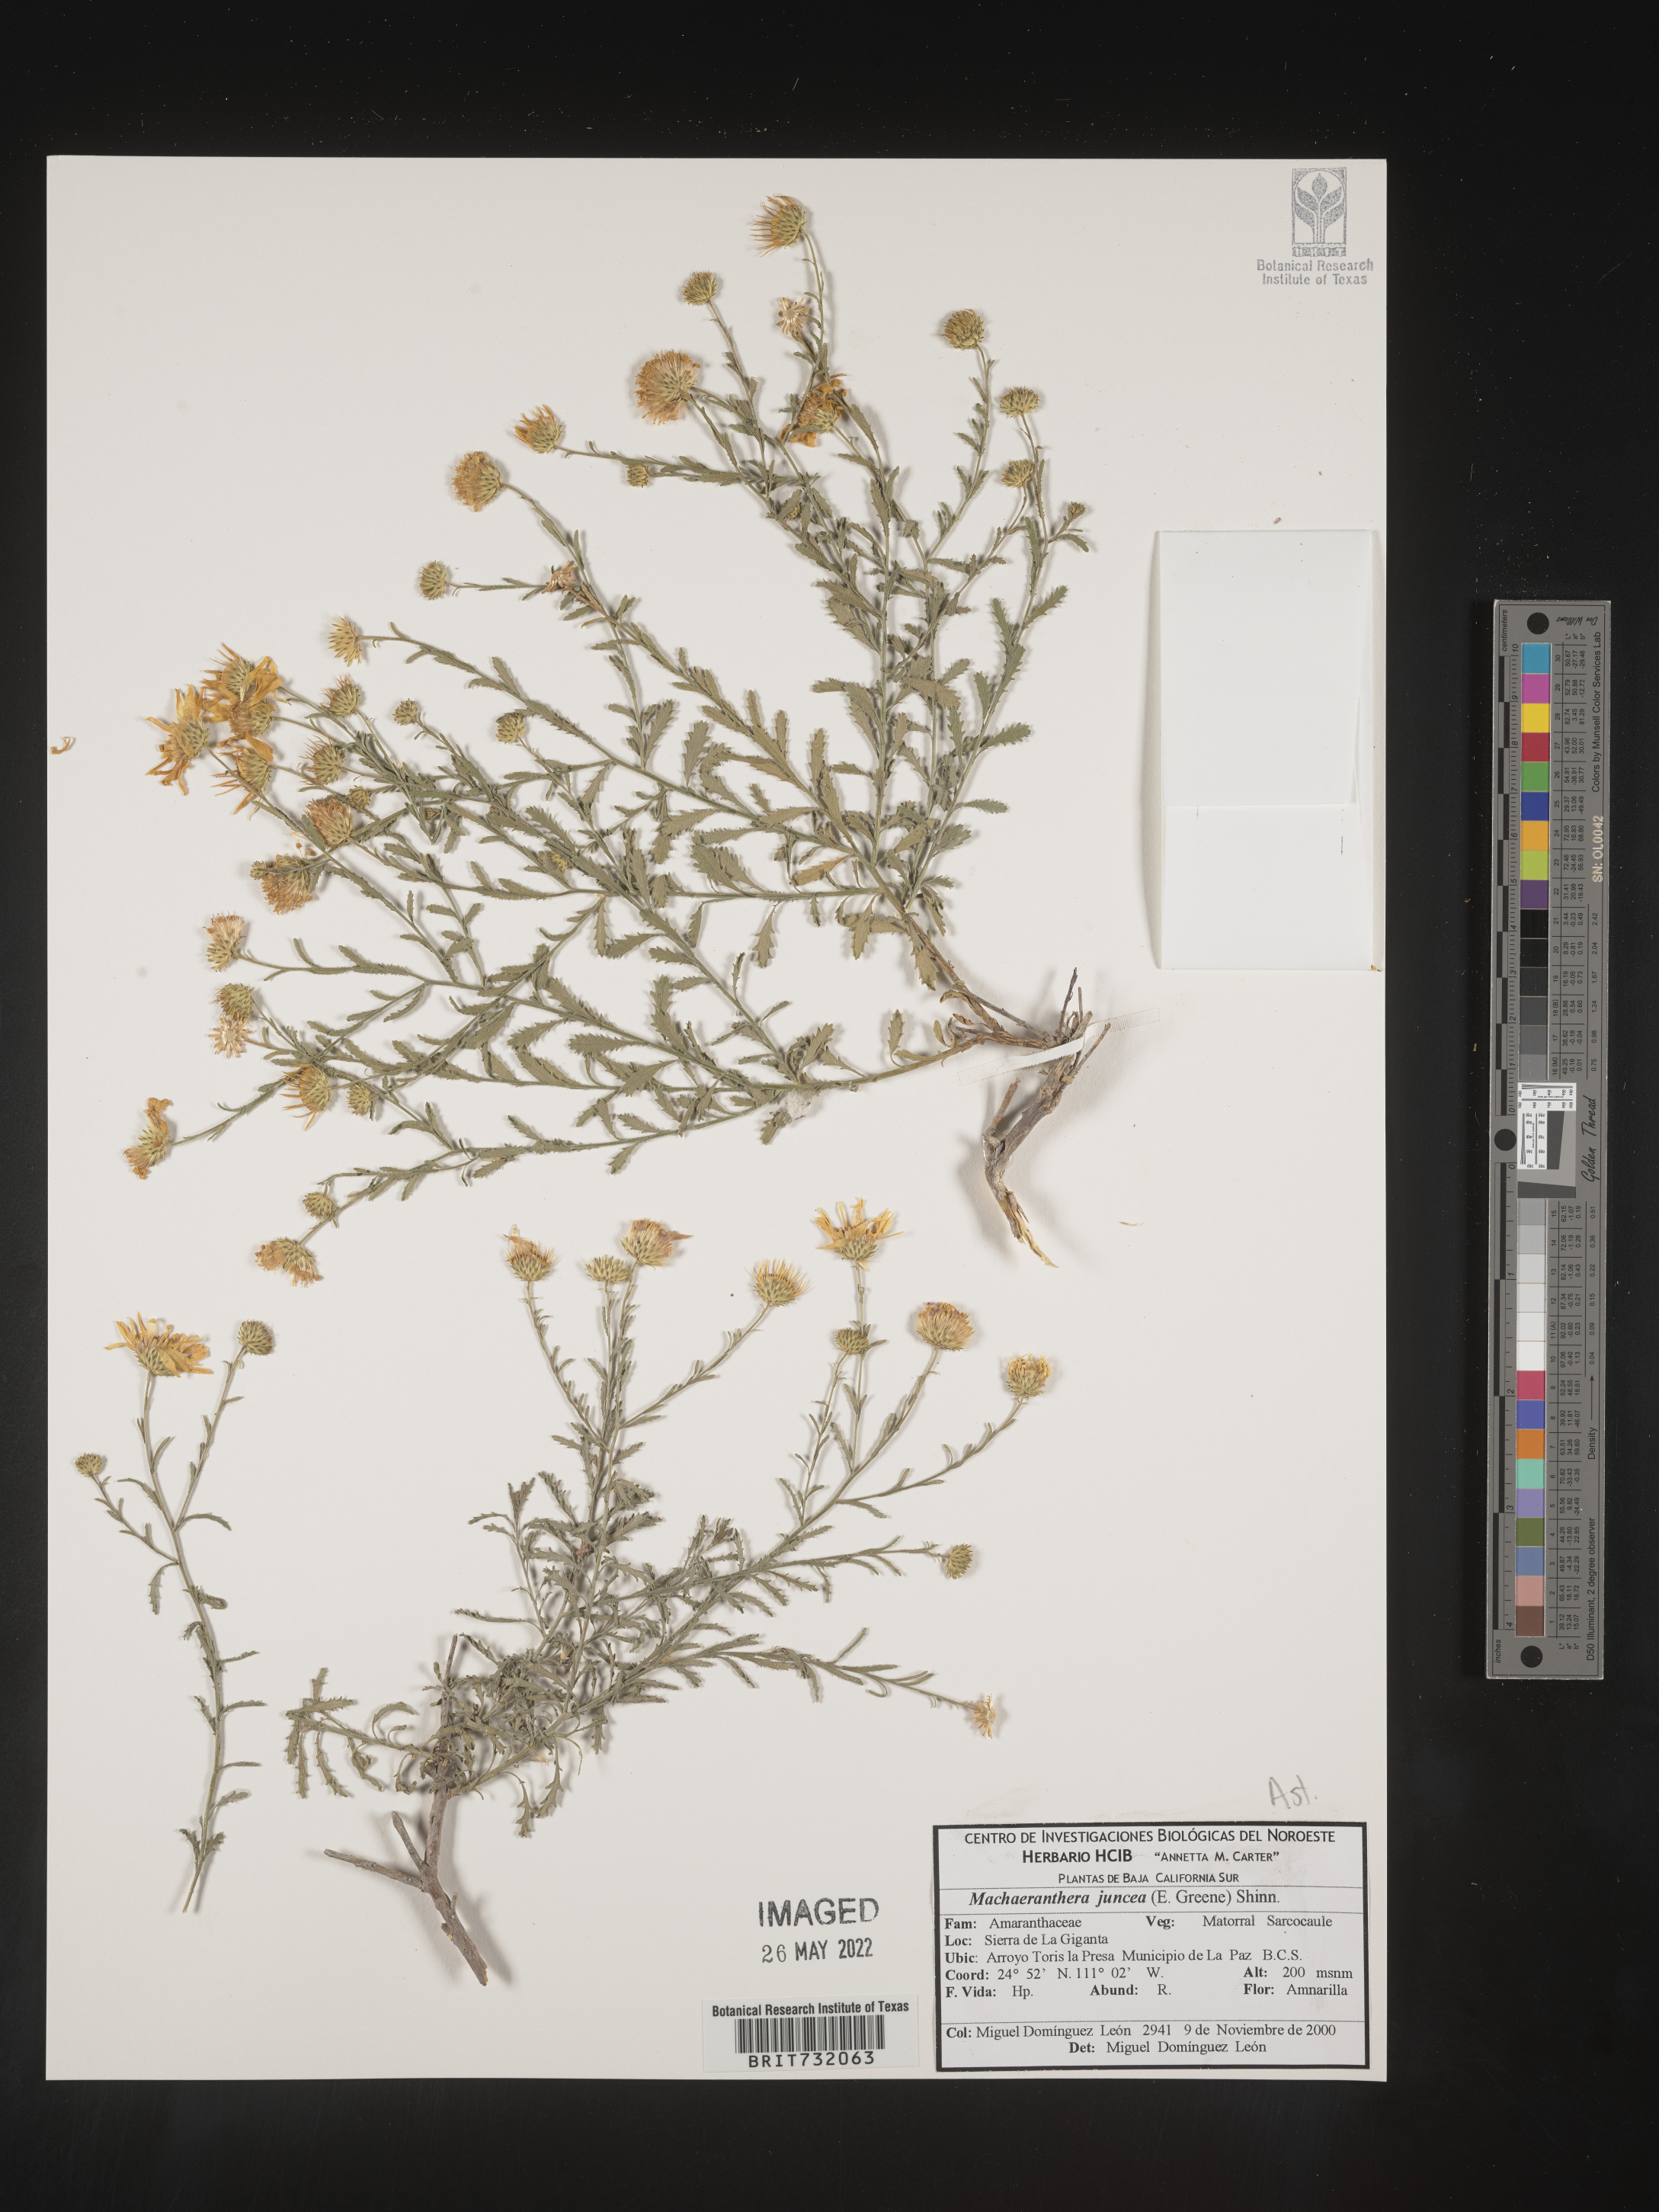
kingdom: Plantae
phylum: Tracheophyta
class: Magnoliopsida
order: Asterales
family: Asteraceae
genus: Xanthisma
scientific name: Xanthisma junceum
